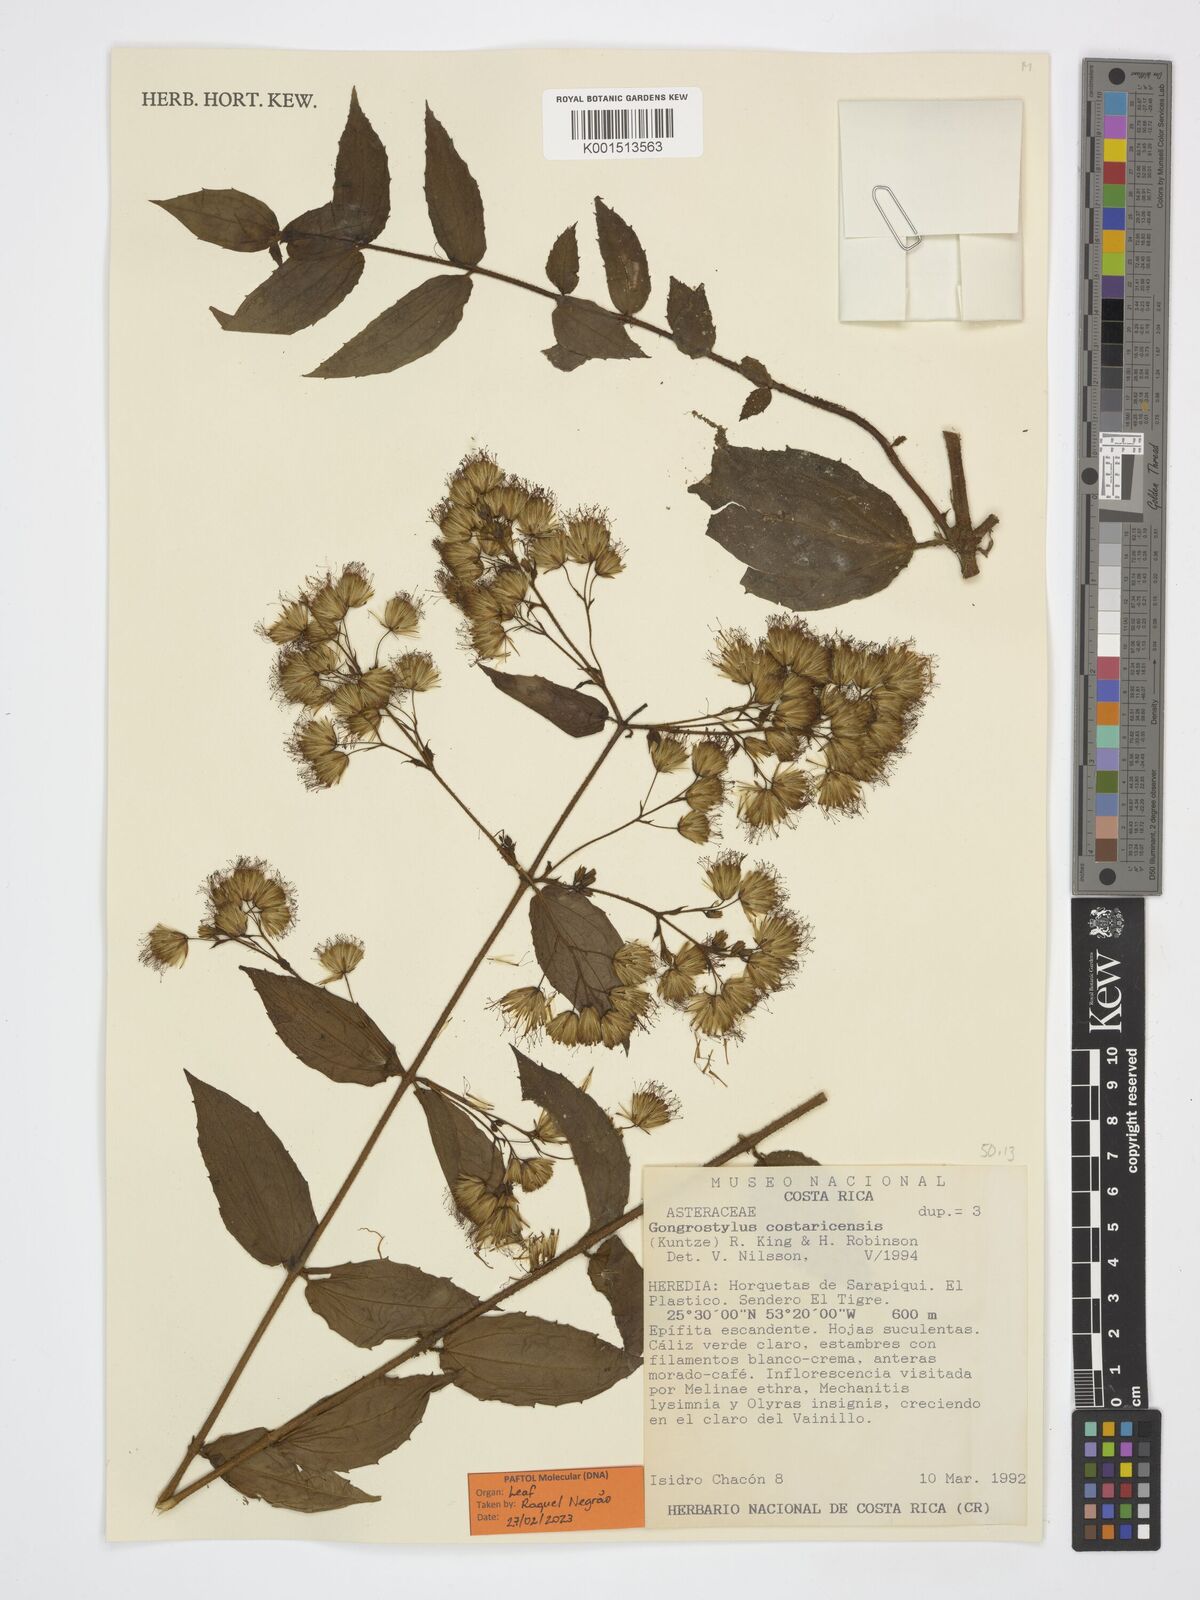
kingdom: Plantae
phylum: Tracheophyta
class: Magnoliopsida
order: Asterales
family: Asteraceae
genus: Gongrostylus
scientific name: Gongrostylus costaricensis
